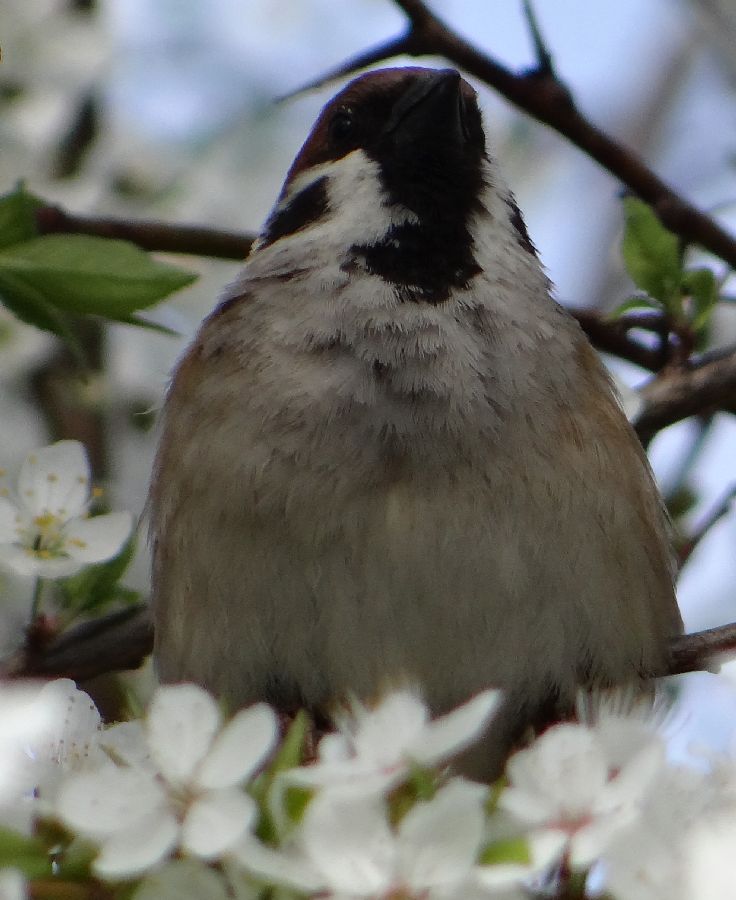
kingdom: Animalia
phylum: Chordata
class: Aves
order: Passeriformes
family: Passeridae
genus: Passer
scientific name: Passer montanus
